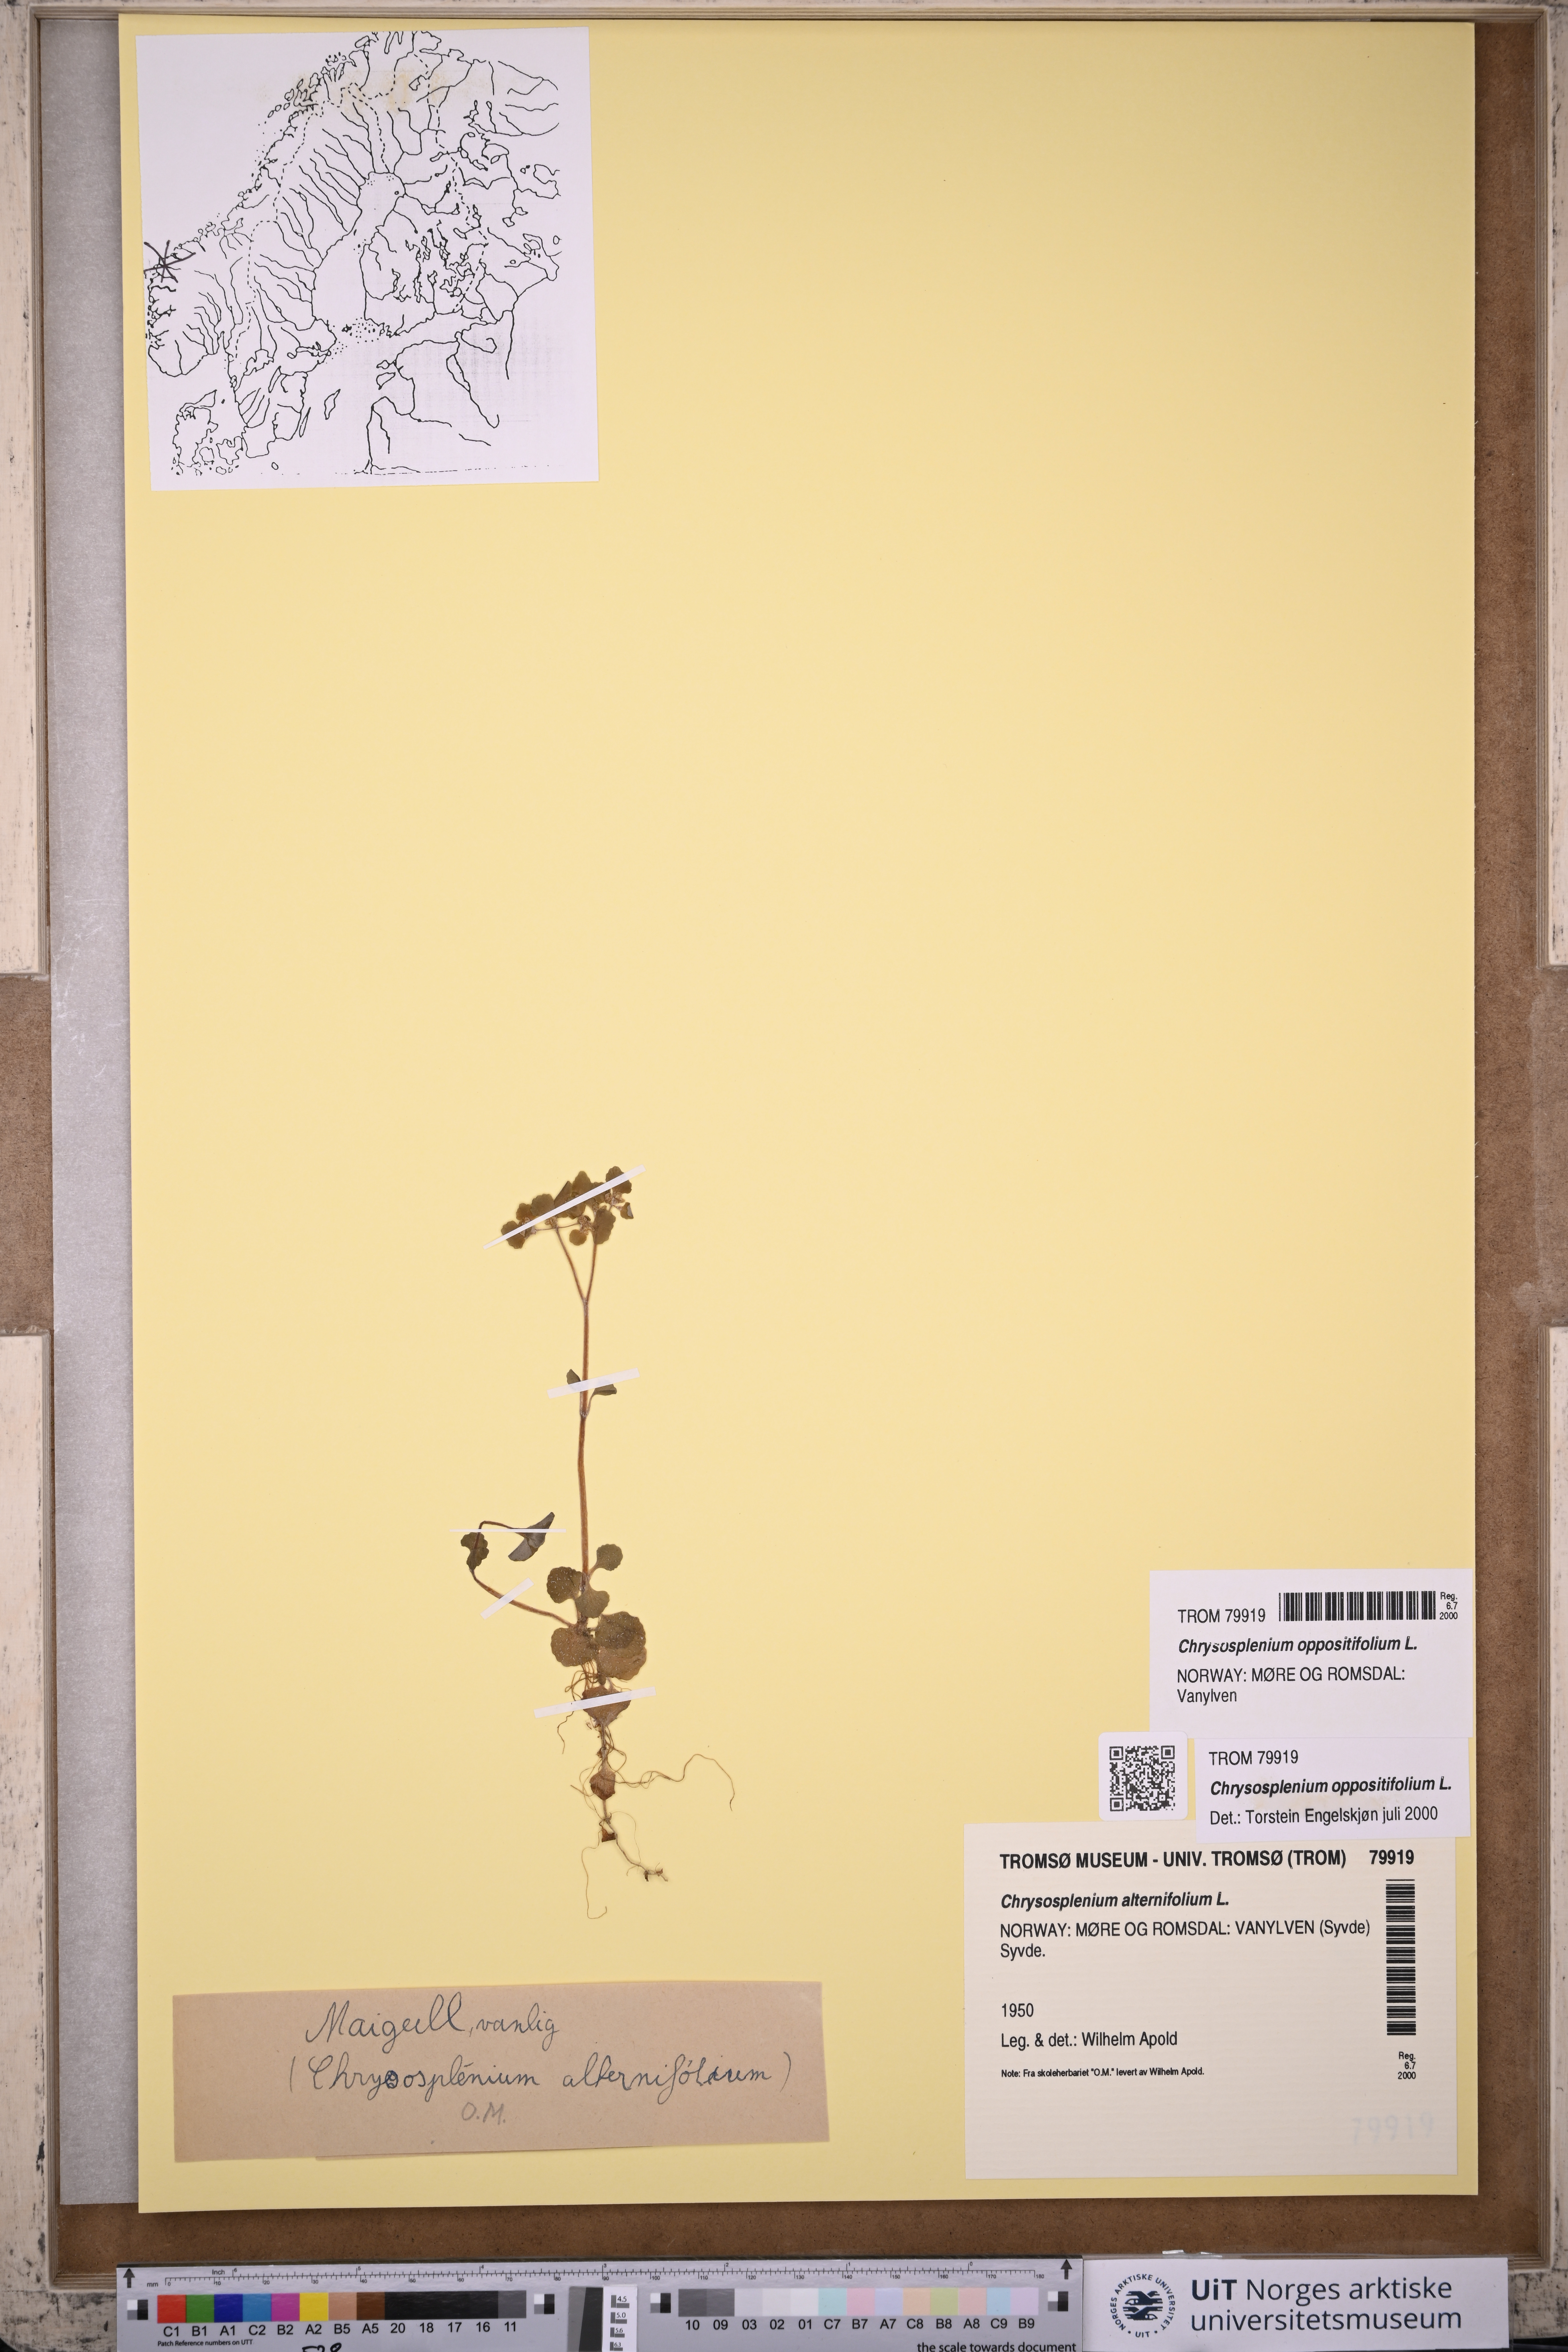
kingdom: Plantae
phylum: Tracheophyta
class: Magnoliopsida
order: Saxifragales
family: Saxifragaceae
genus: Chrysosplenium
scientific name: Chrysosplenium oppositifolium
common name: Opposite-leaved golden-saxifrage
